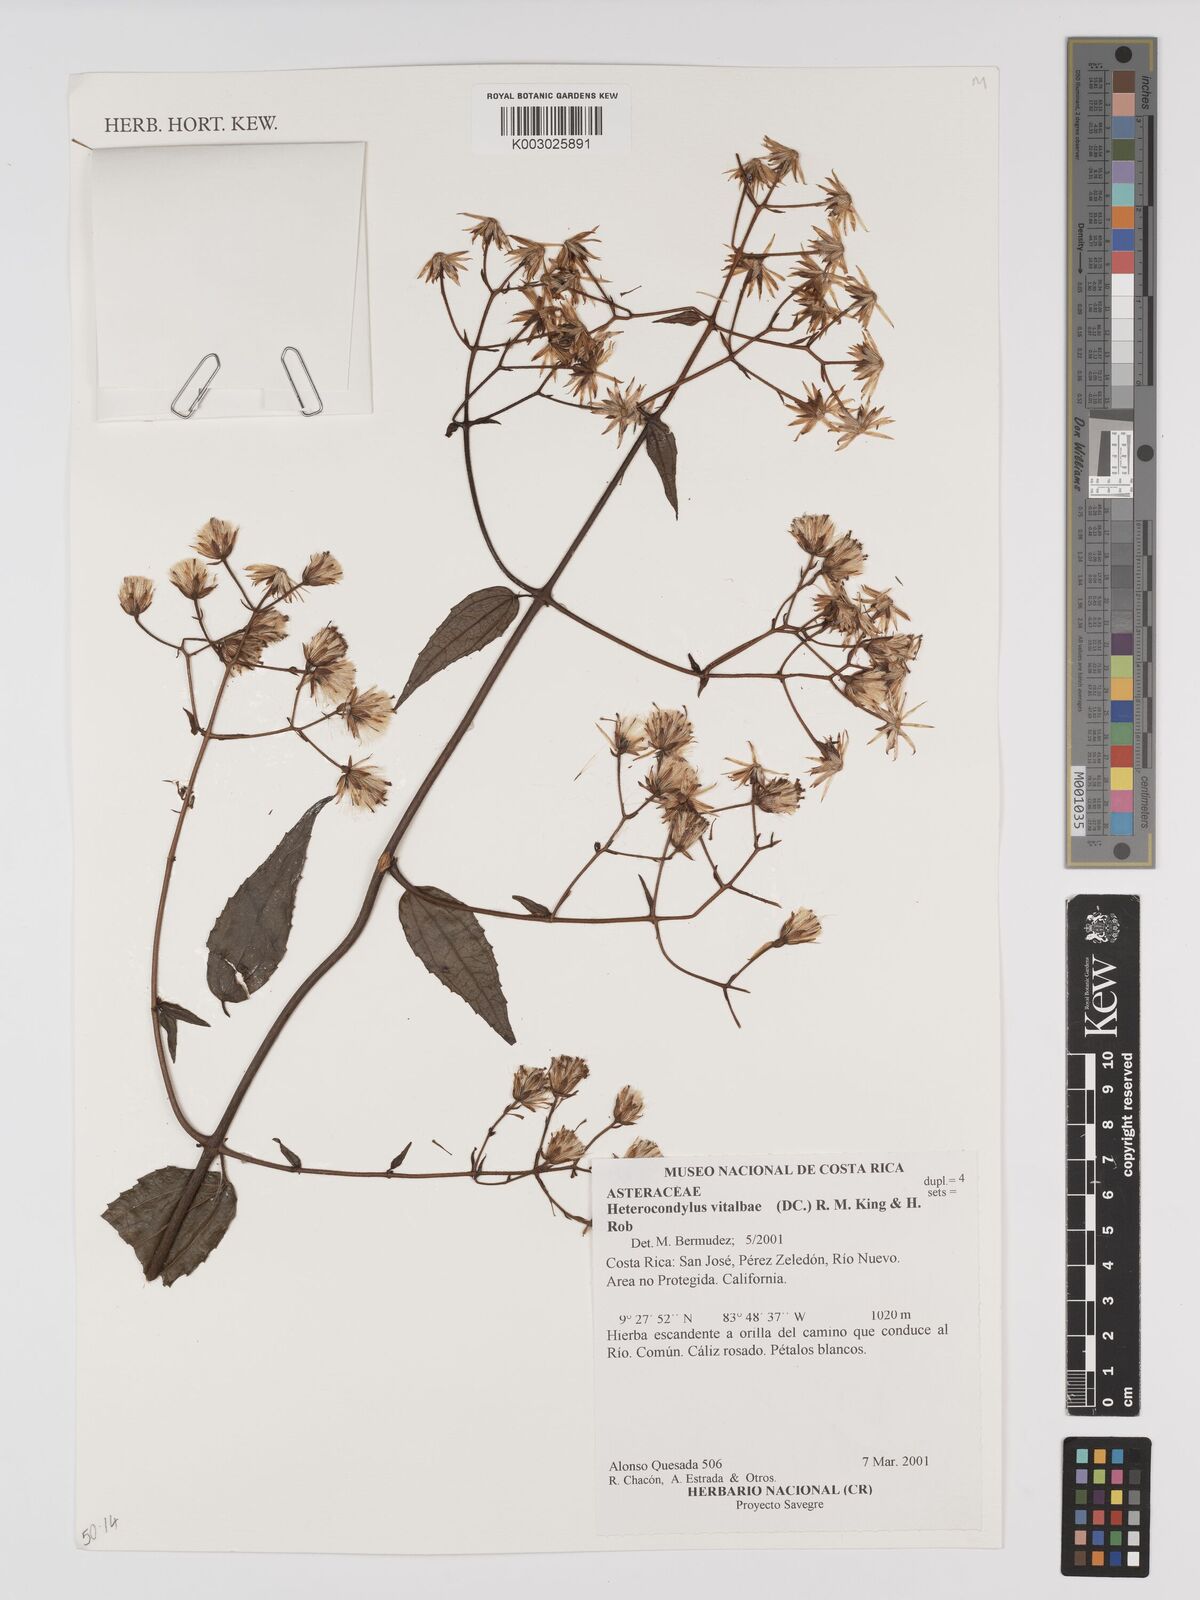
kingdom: Plantae
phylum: Tracheophyta
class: Magnoliopsida
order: Asterales
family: Asteraceae
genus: Heterocondylus
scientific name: Heterocondylus vitalbae
